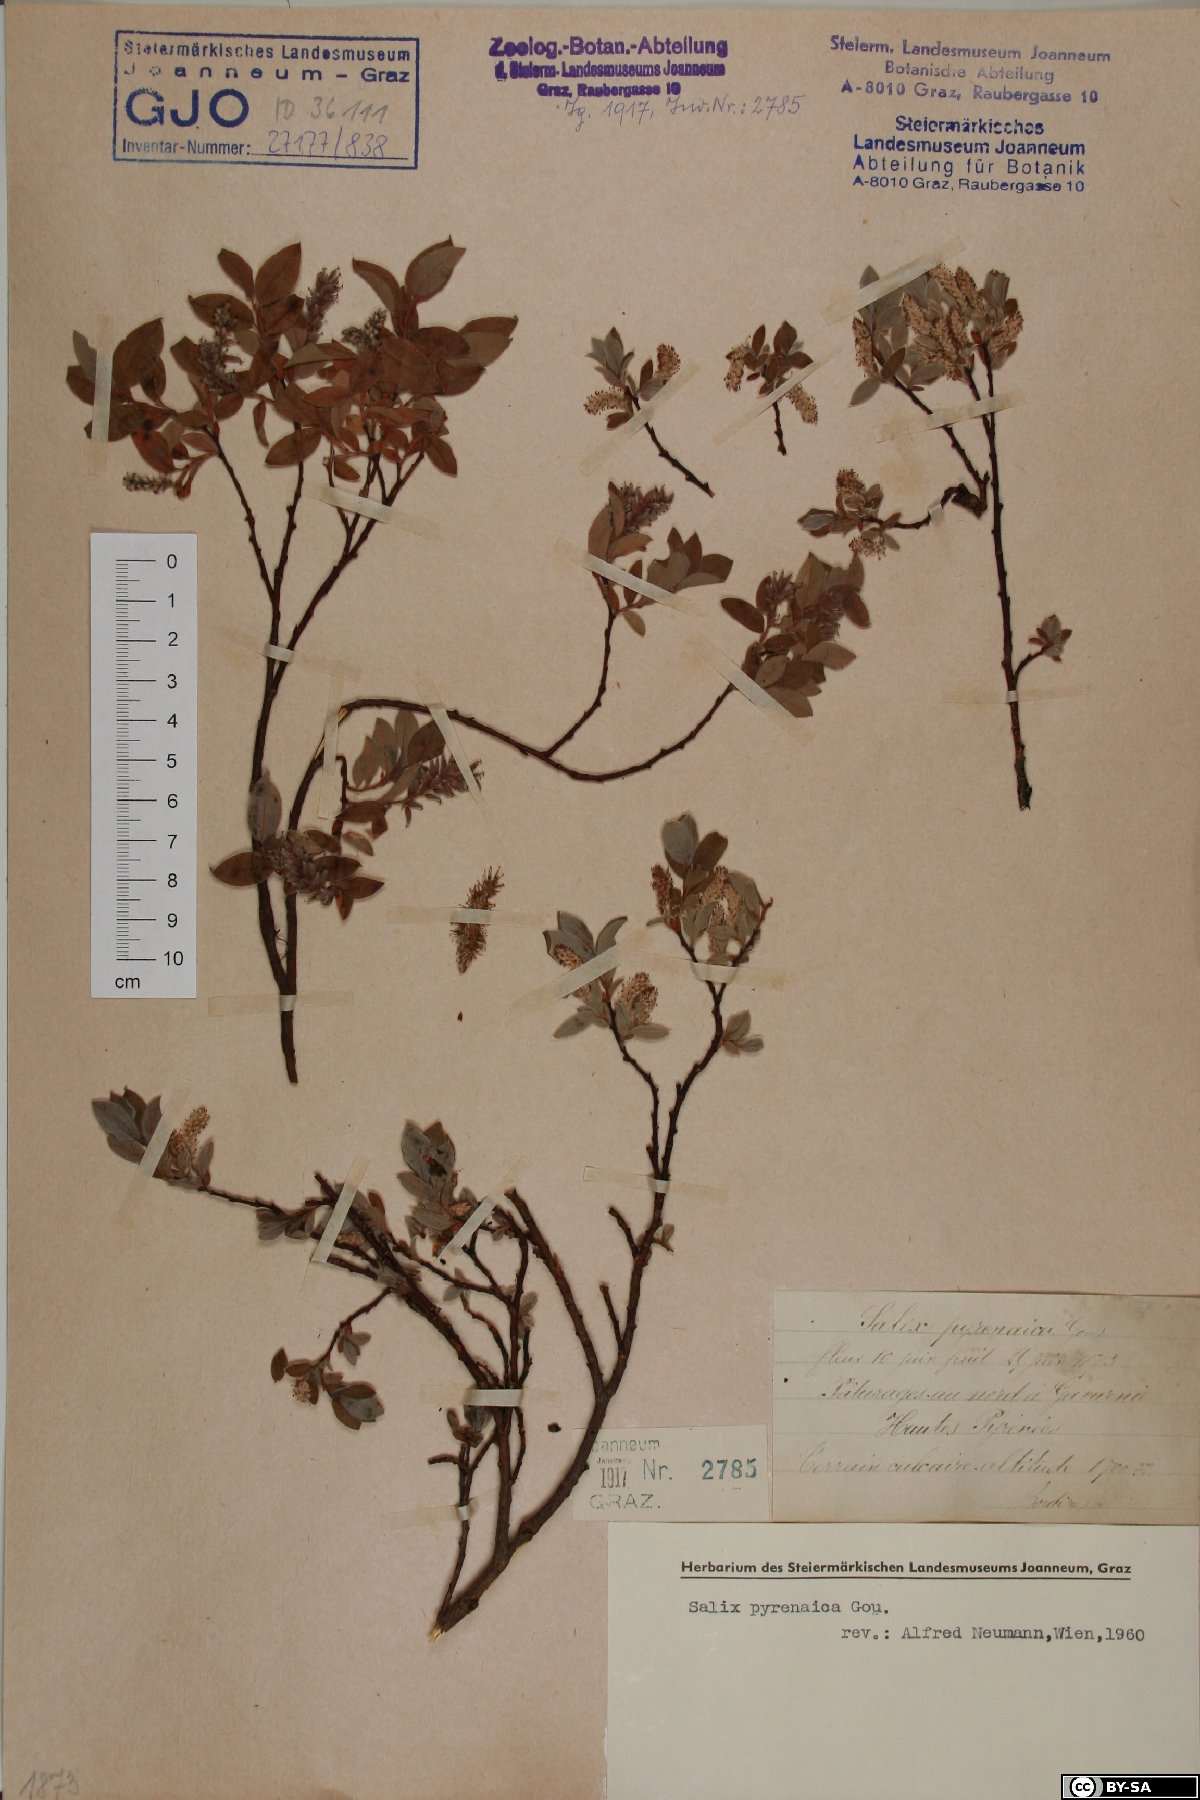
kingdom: Plantae
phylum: Tracheophyta
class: Magnoliopsida
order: Malpighiales
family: Salicaceae
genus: Salix
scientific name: Salix pyrenaica
